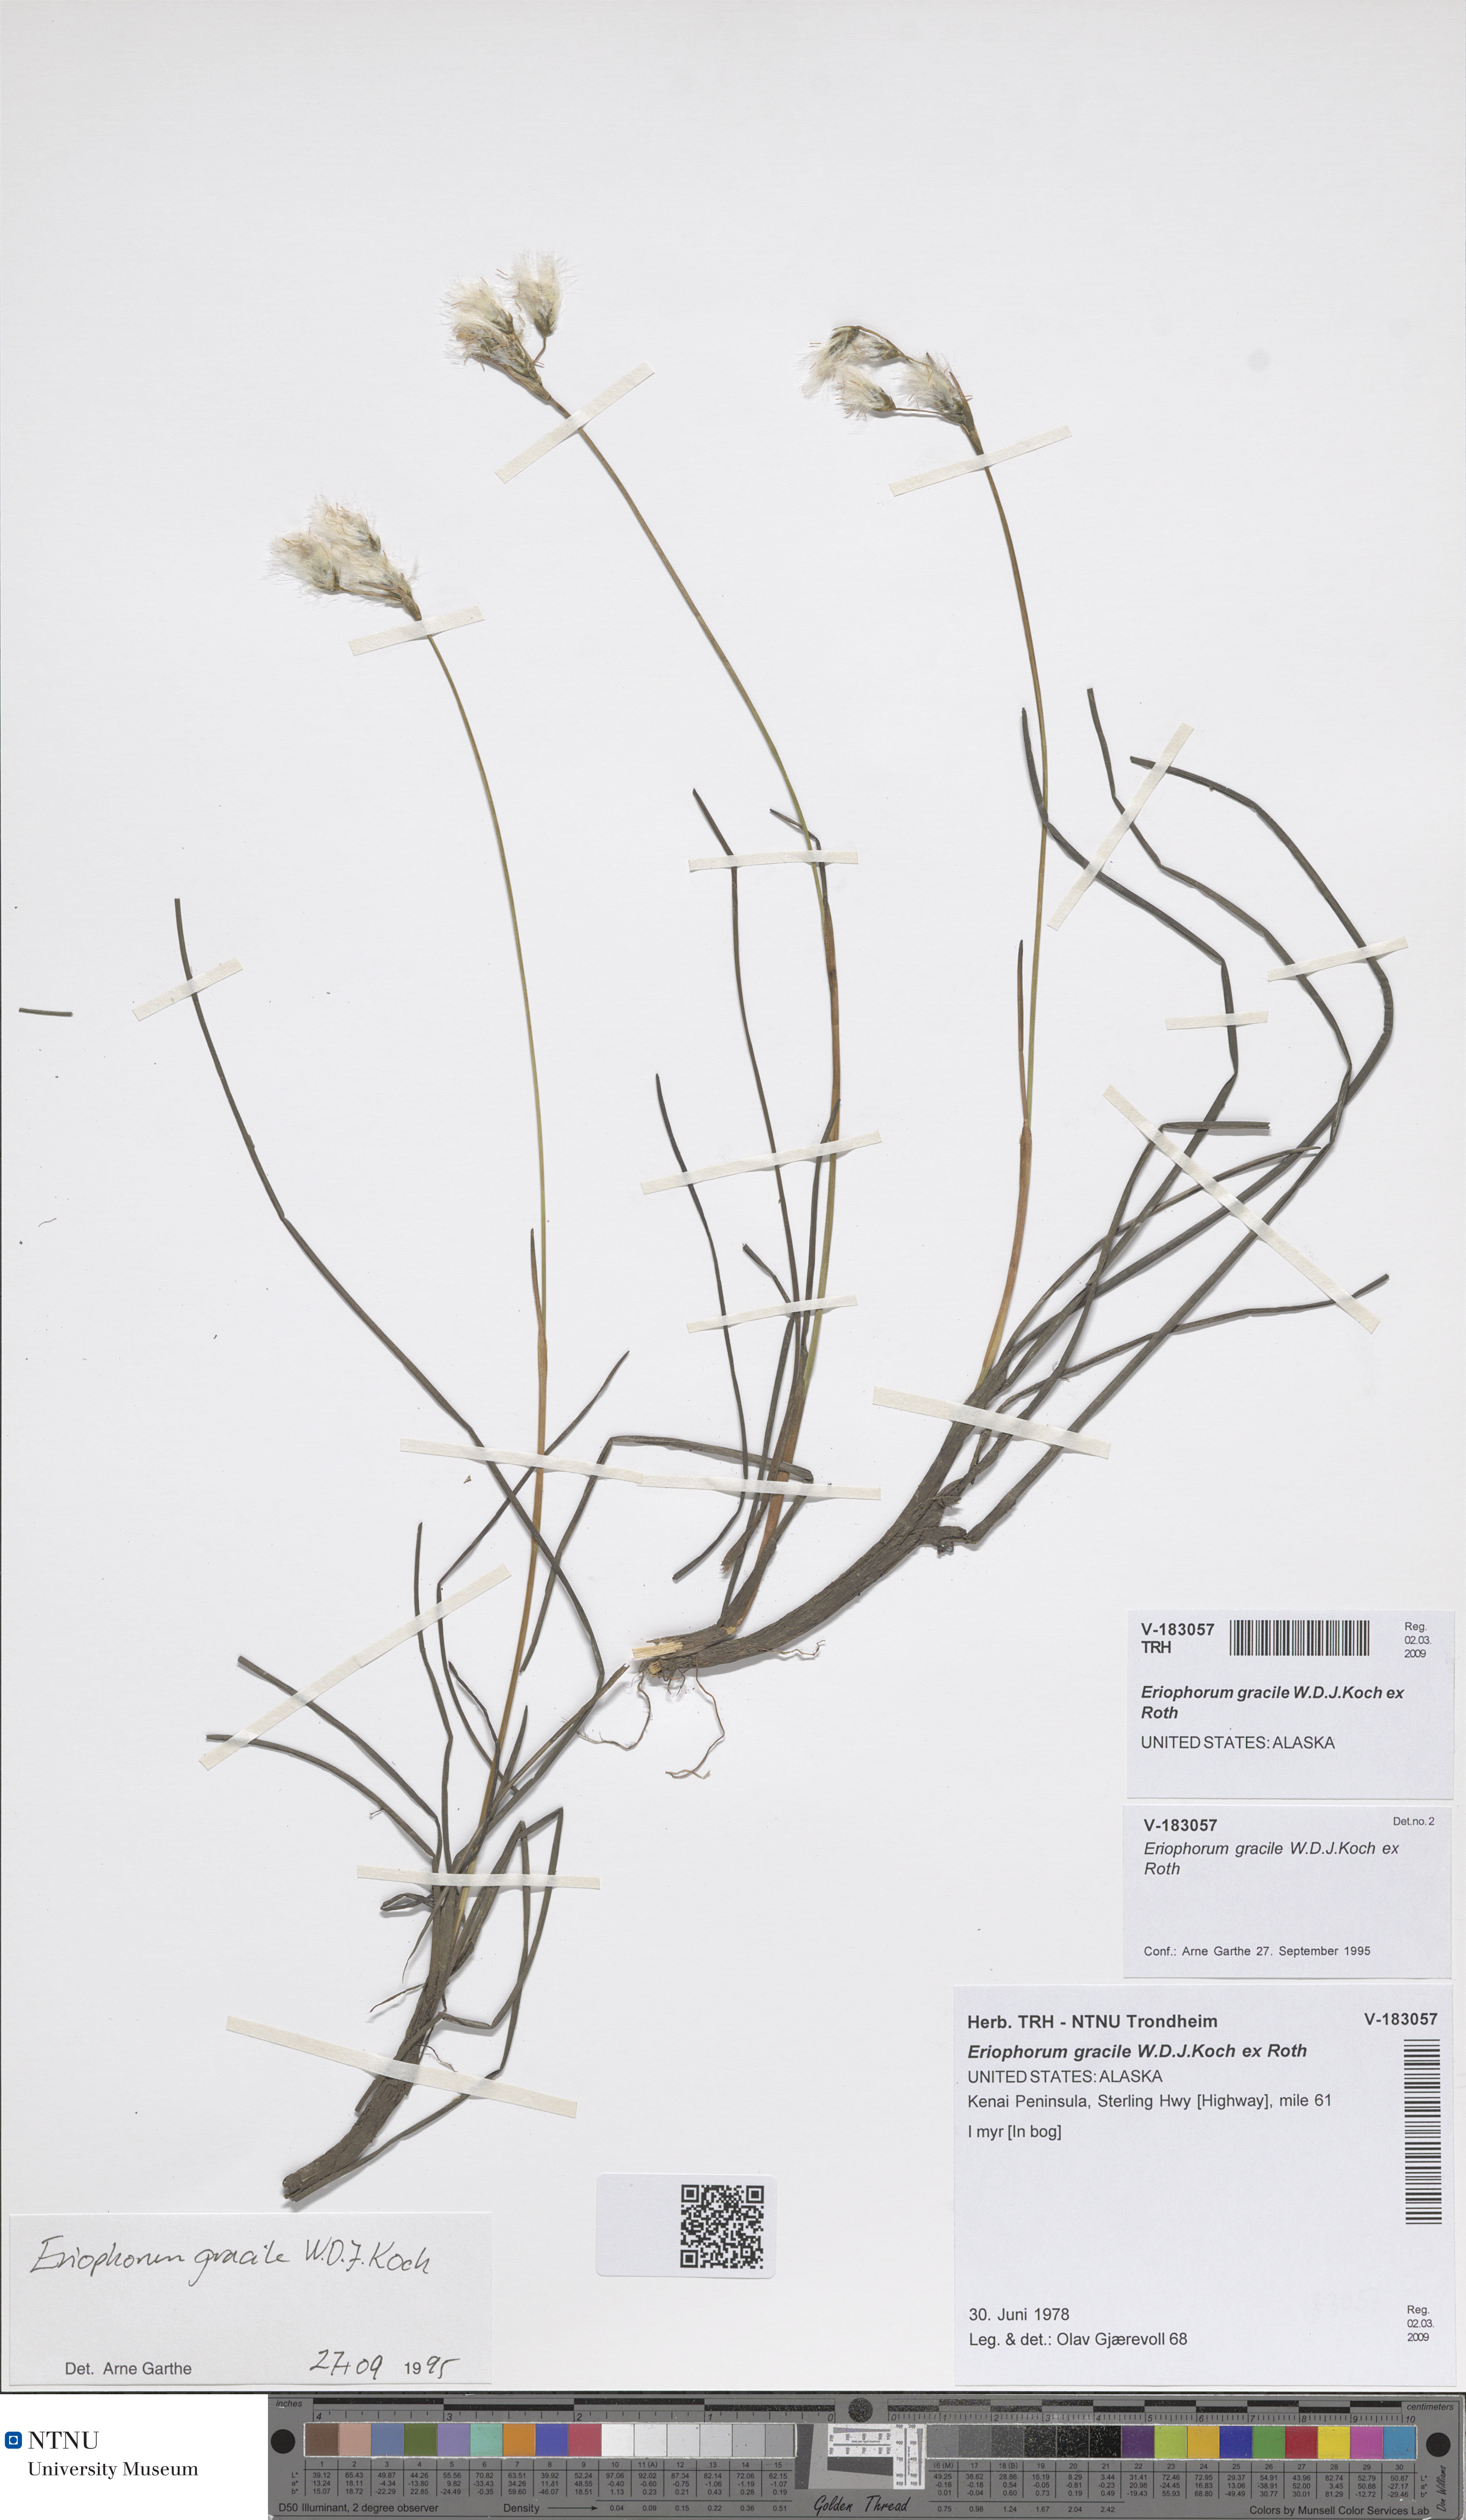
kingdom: Plantae
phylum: Tracheophyta
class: Liliopsida
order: Poales
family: Cyperaceae
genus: Eriophorum
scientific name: Eriophorum gracile
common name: Slender cottongrass
